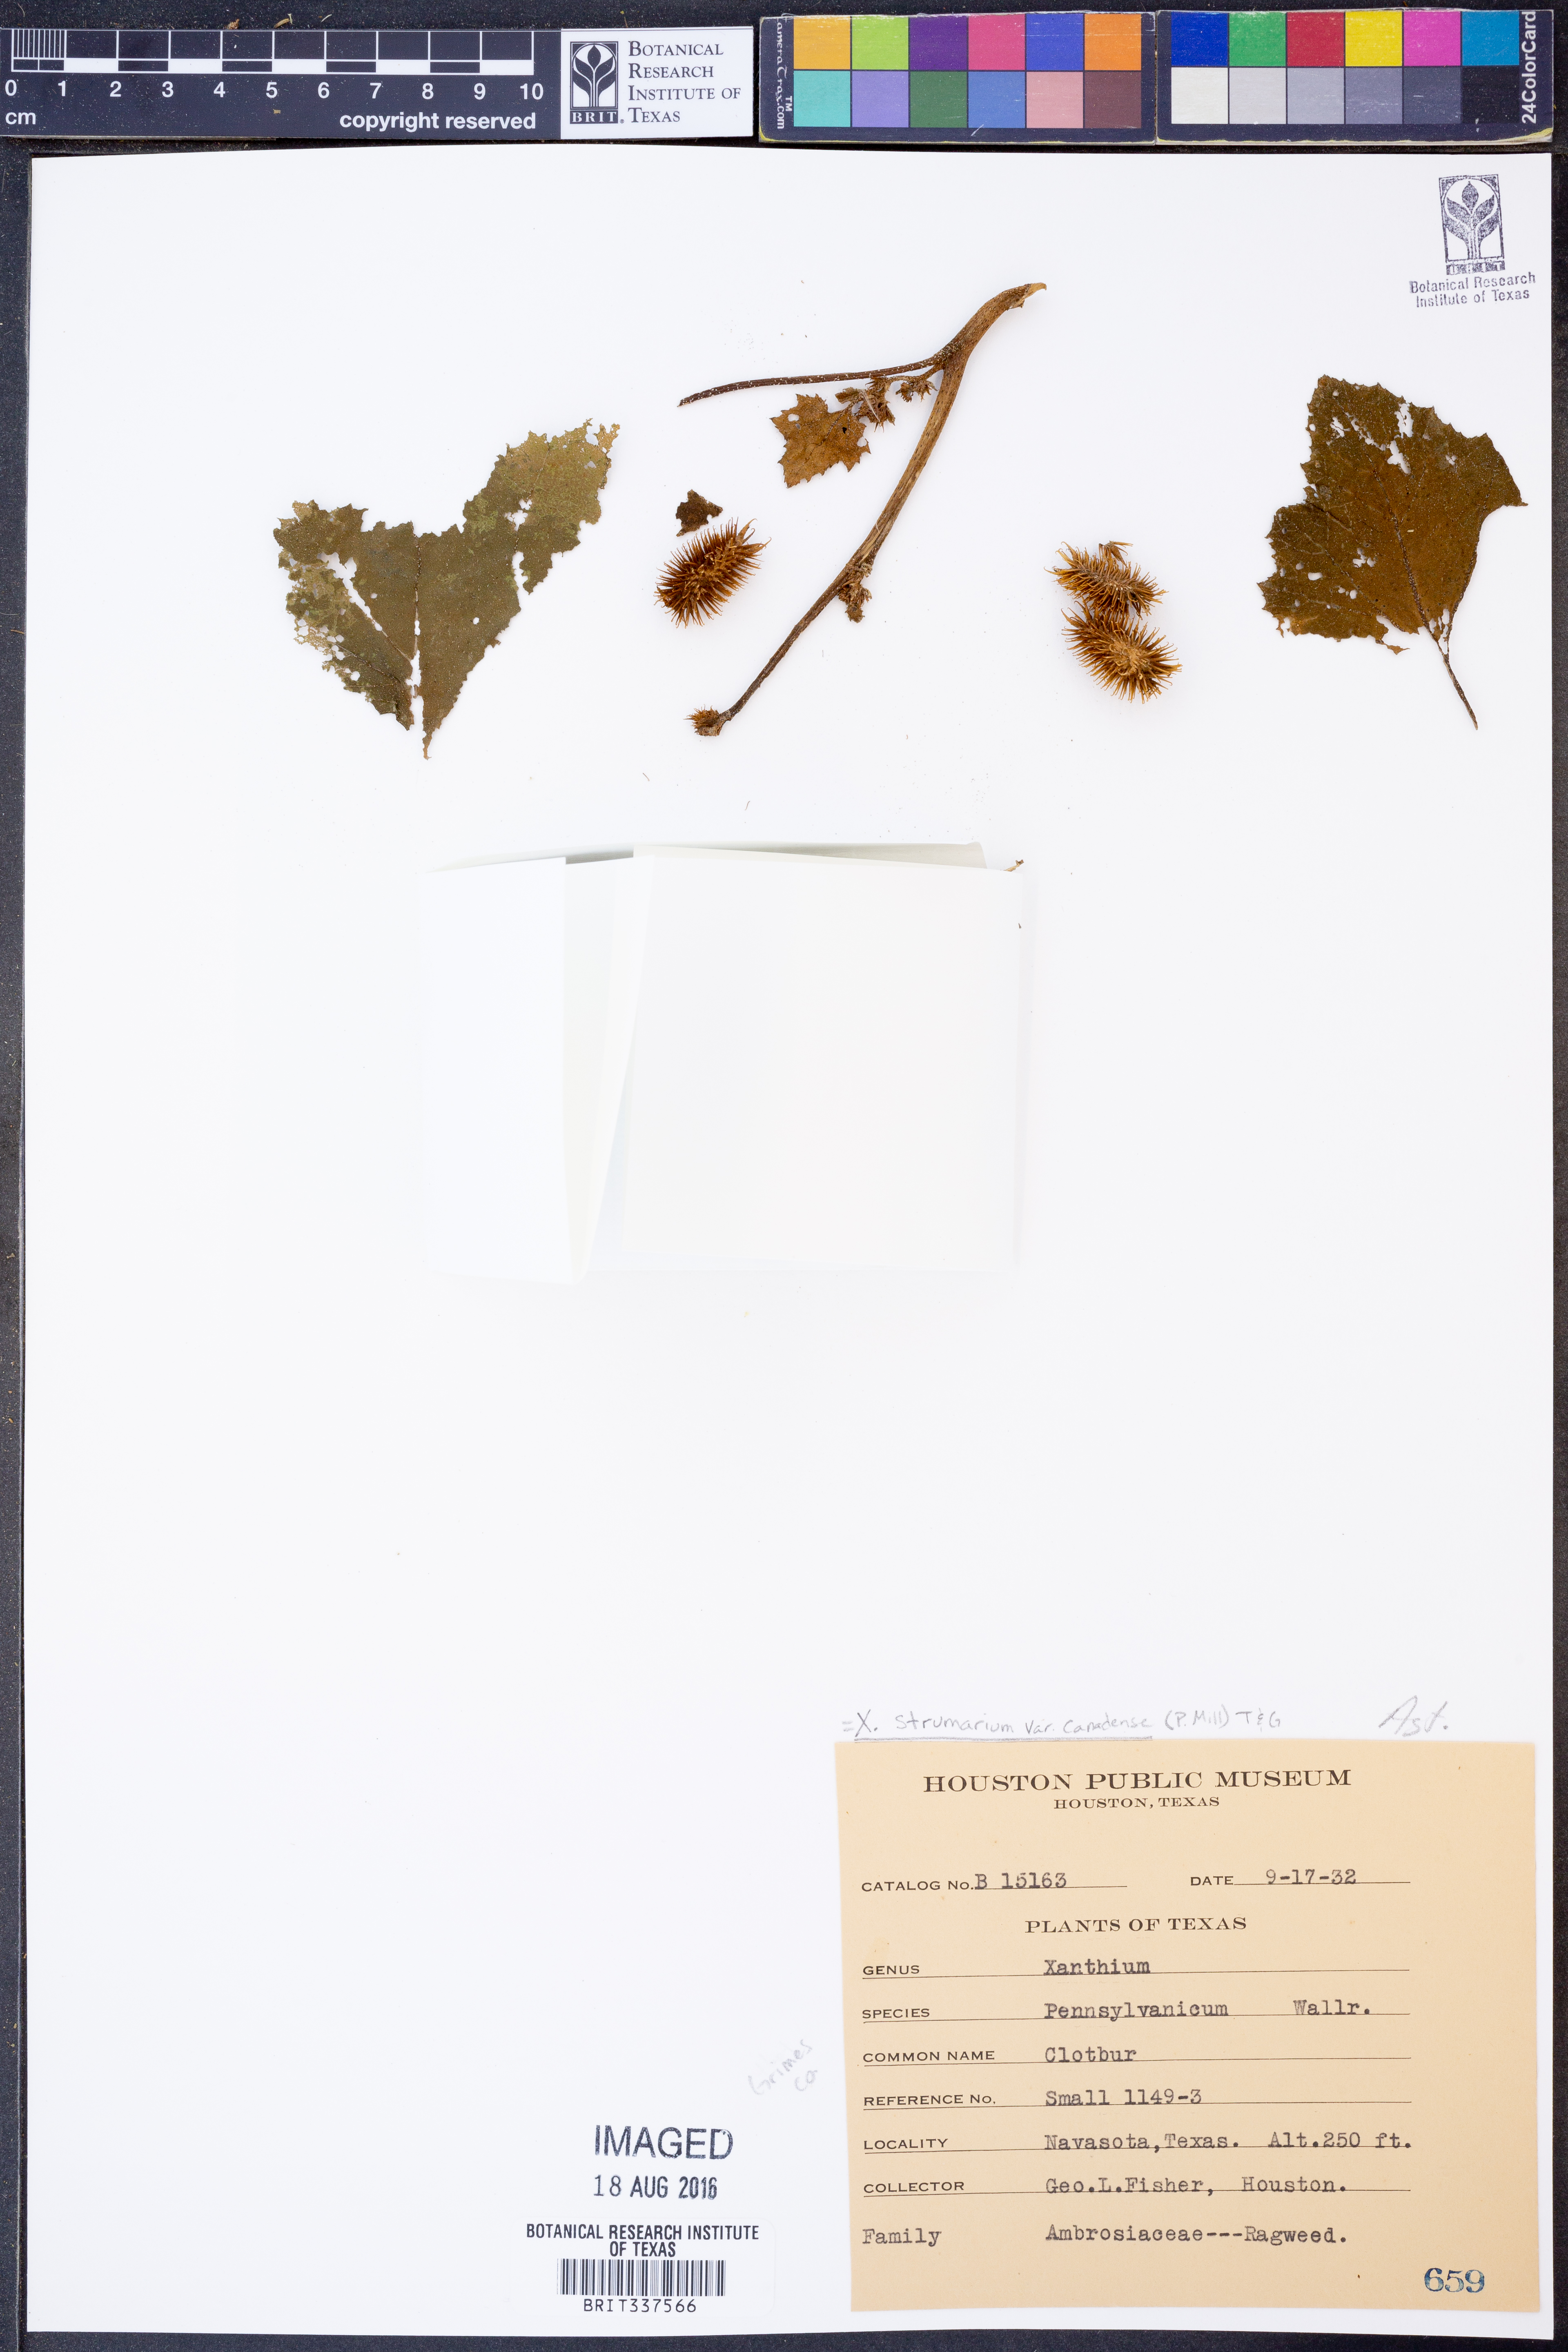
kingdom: Plantae
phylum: Tracheophyta
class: Magnoliopsida
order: Asterales
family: Asteraceae
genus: Xanthium
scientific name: Xanthium orientale
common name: Californian burr
